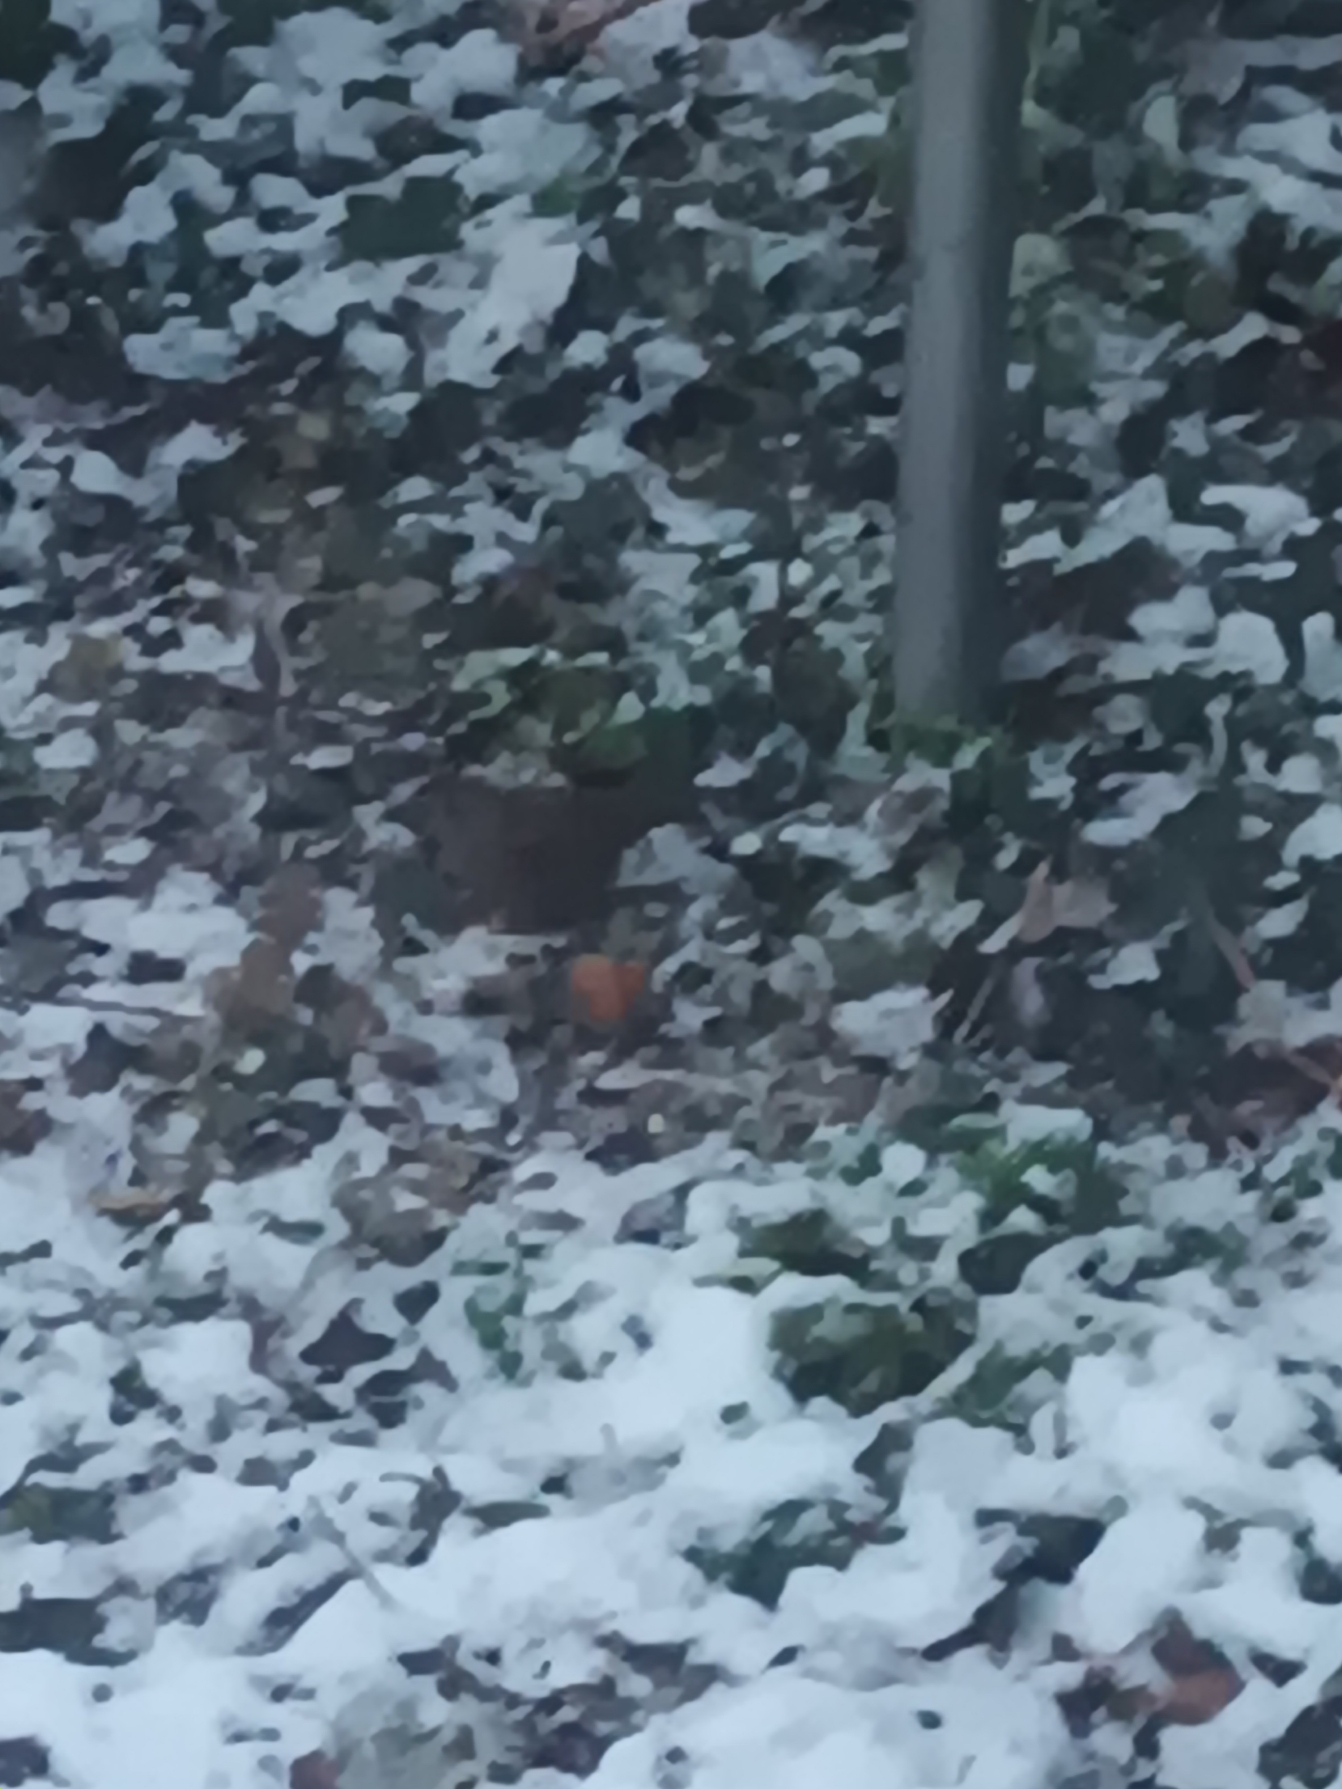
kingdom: Animalia
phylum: Chordata
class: Aves
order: Passeriformes
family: Prunellidae
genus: Prunella
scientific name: Prunella modularis
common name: Jernspurv
